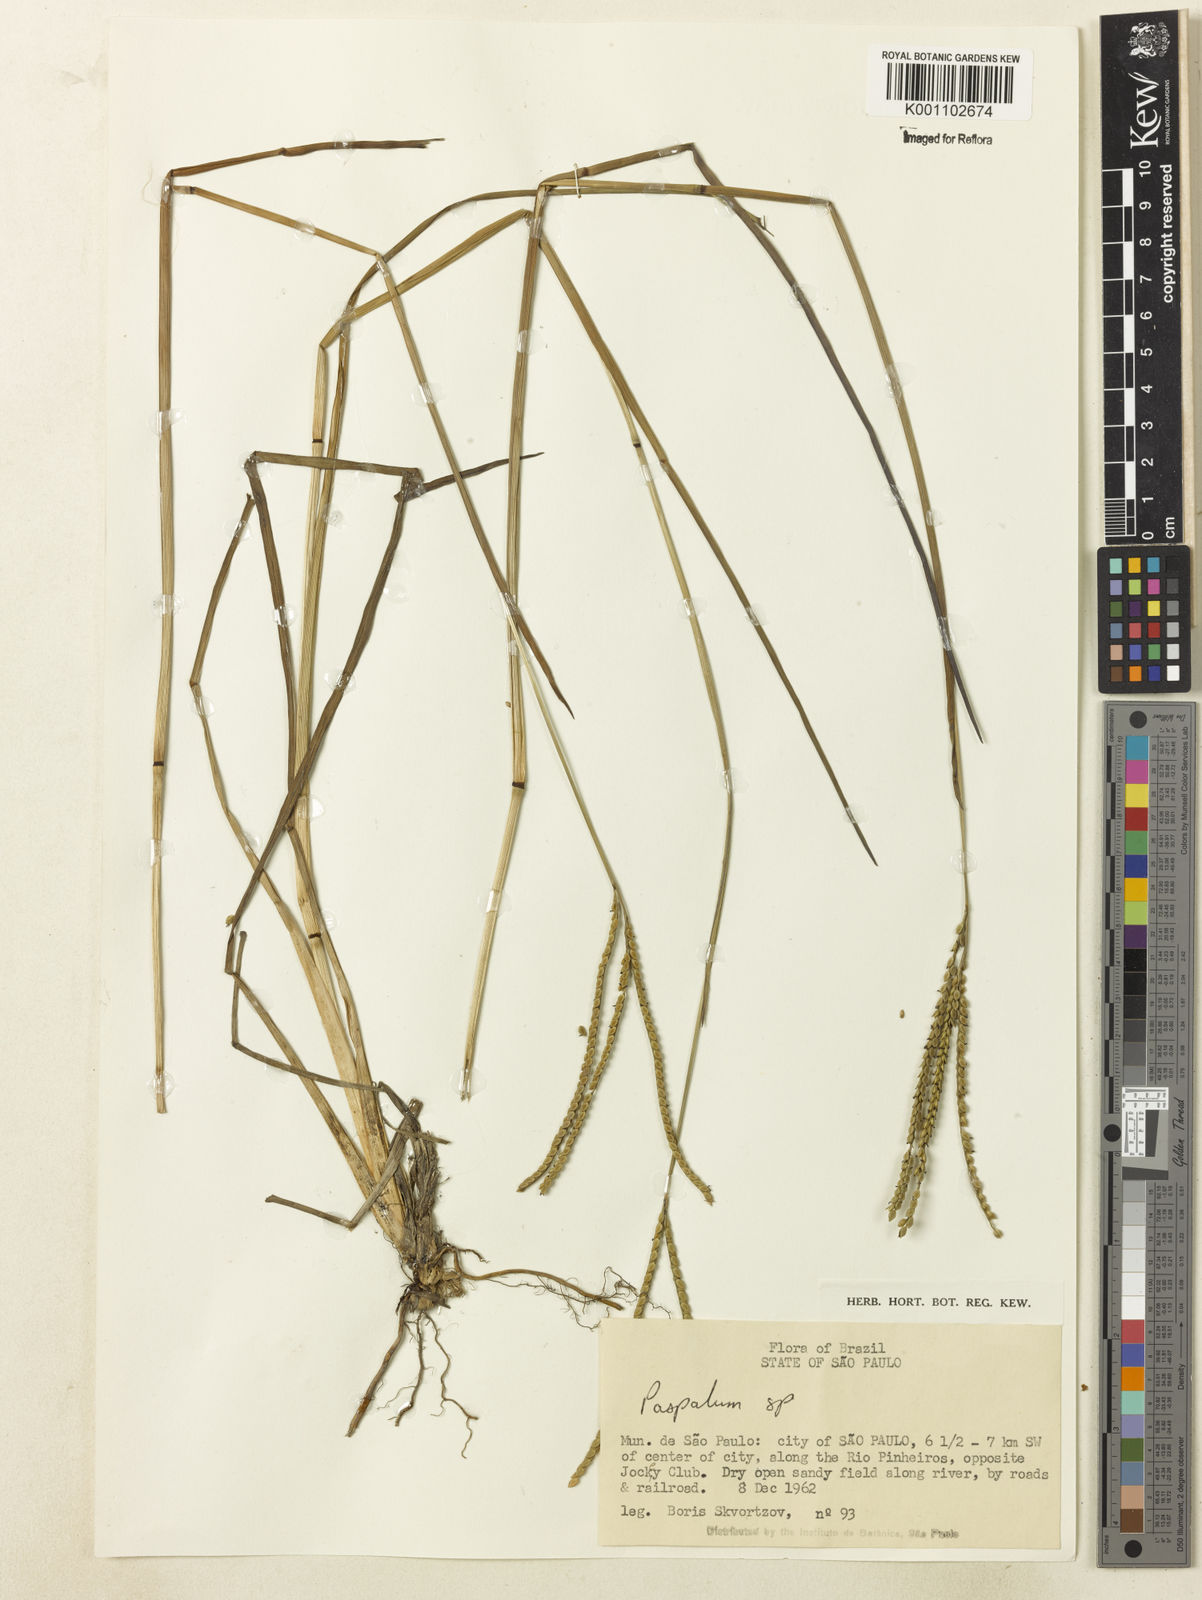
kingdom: Plantae
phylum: Tracheophyta
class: Liliopsida
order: Poales
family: Poaceae
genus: Paspalum
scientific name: Paspalum
